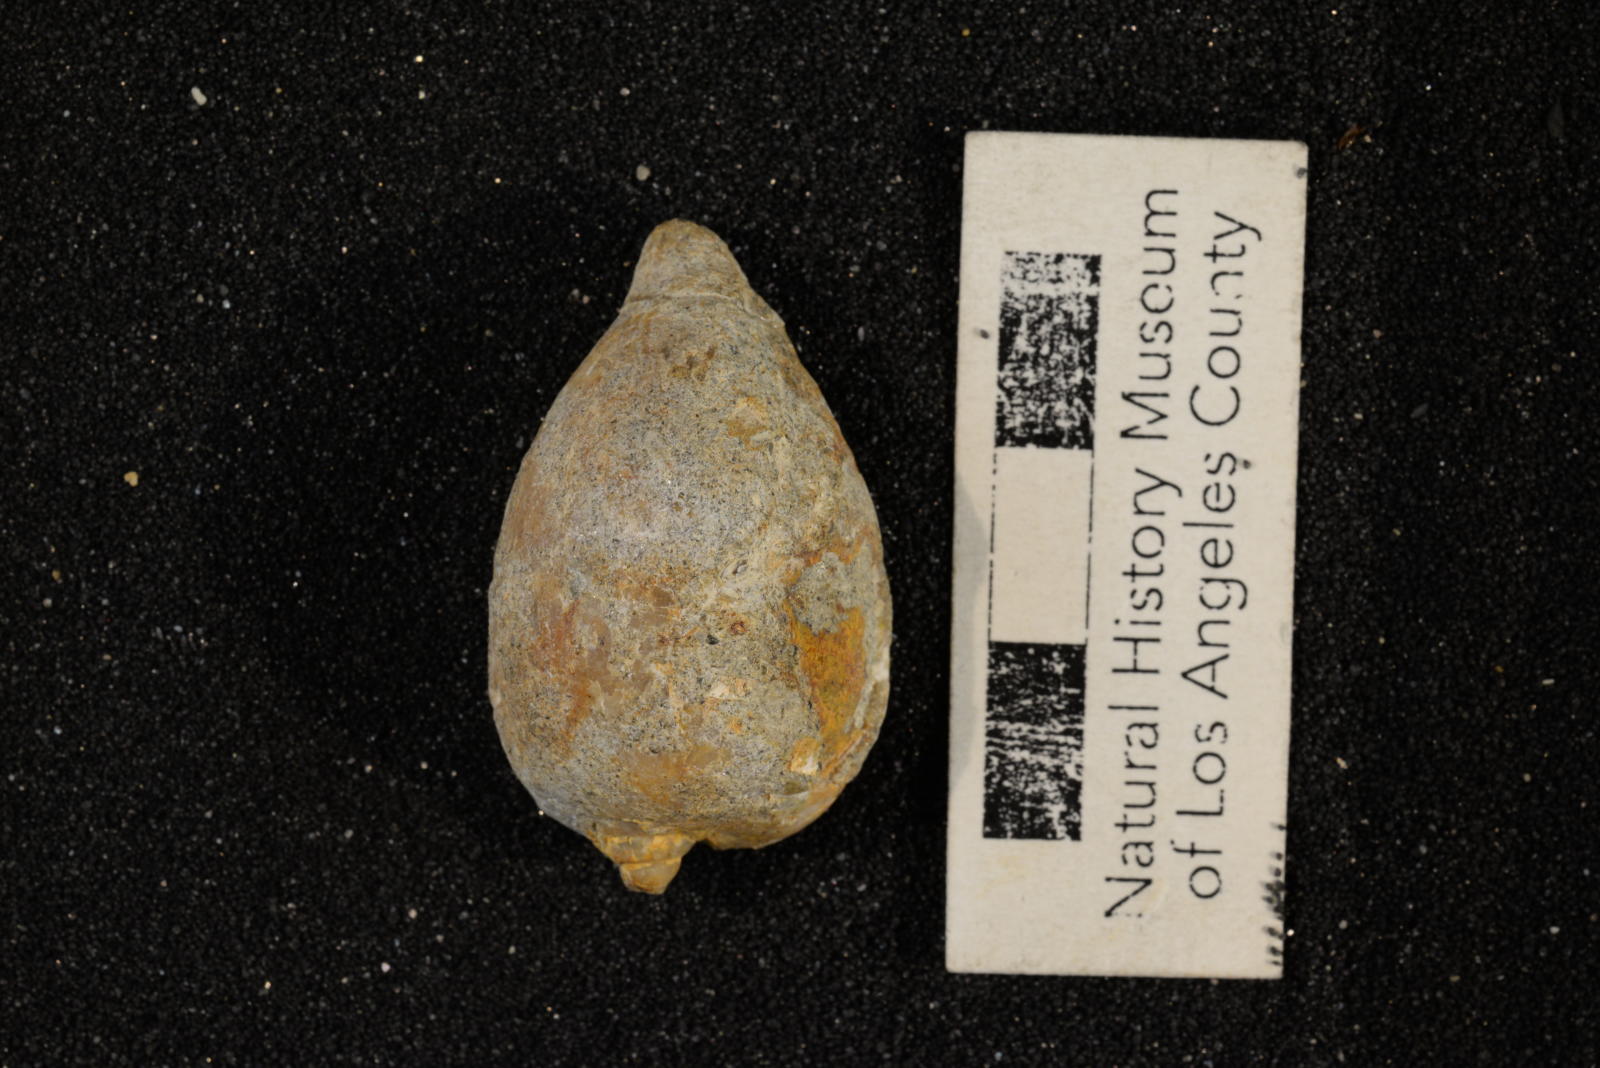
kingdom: Animalia
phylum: Mollusca
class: Gastropoda
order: Littorinimorpha
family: Cypraeidae
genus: Palaeocypraea
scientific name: Palaeocypraea wilfredi
